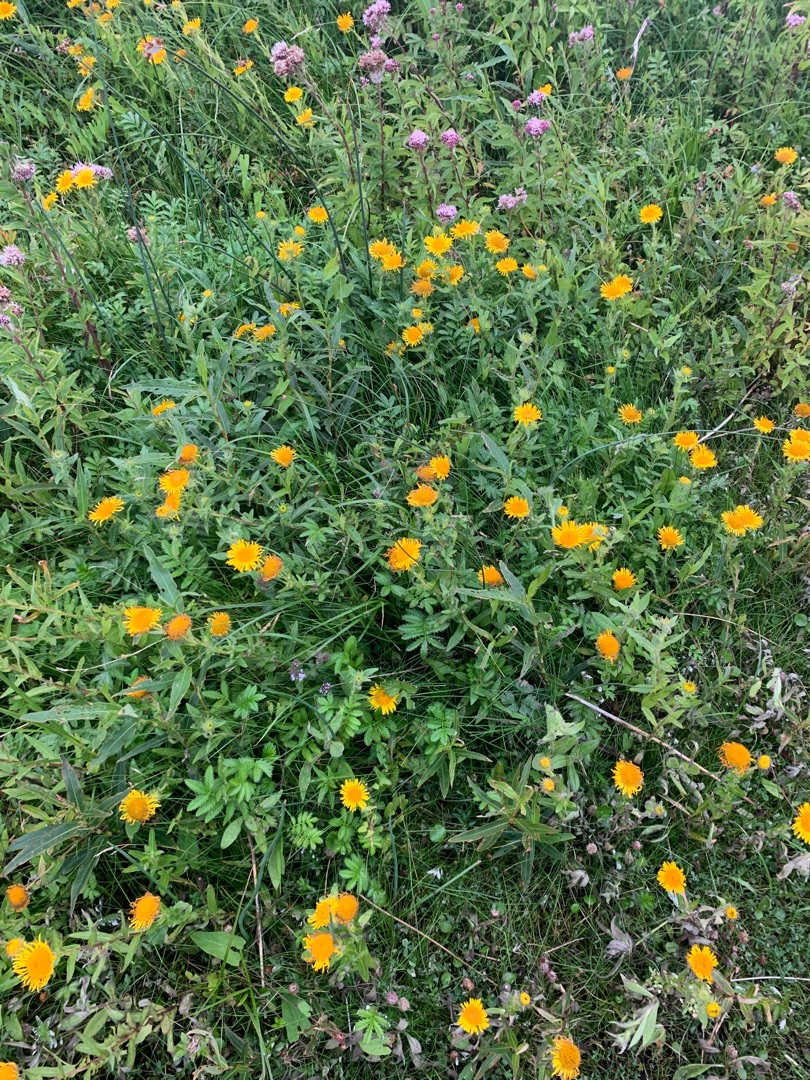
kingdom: Plantae
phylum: Tracheophyta
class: Magnoliopsida
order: Asterales
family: Asteraceae
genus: Pentanema
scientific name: Pentanema britannicum
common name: Soløje-alant
